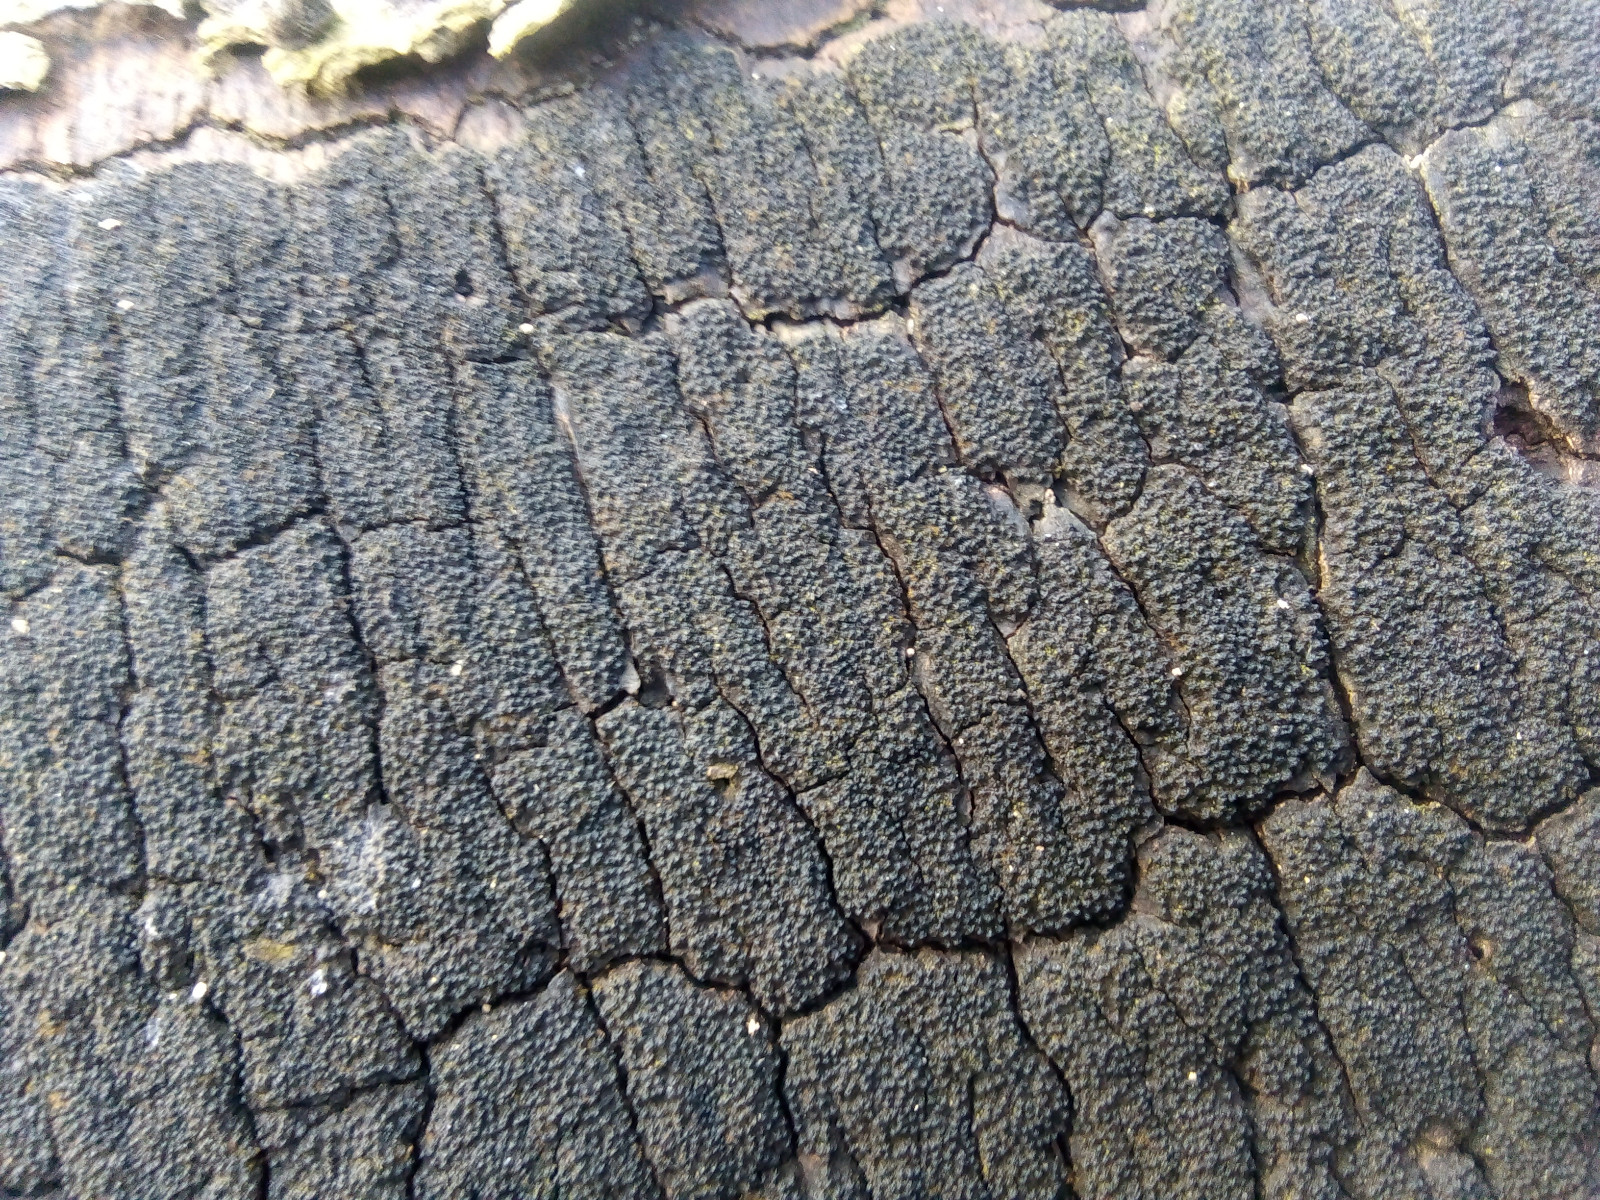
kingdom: Fungi
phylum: Ascomycota
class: Sordariomycetes
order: Xylariales
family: Diatrypaceae
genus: Eutypa
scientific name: Eutypa spinosa
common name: grov kulskorpe
